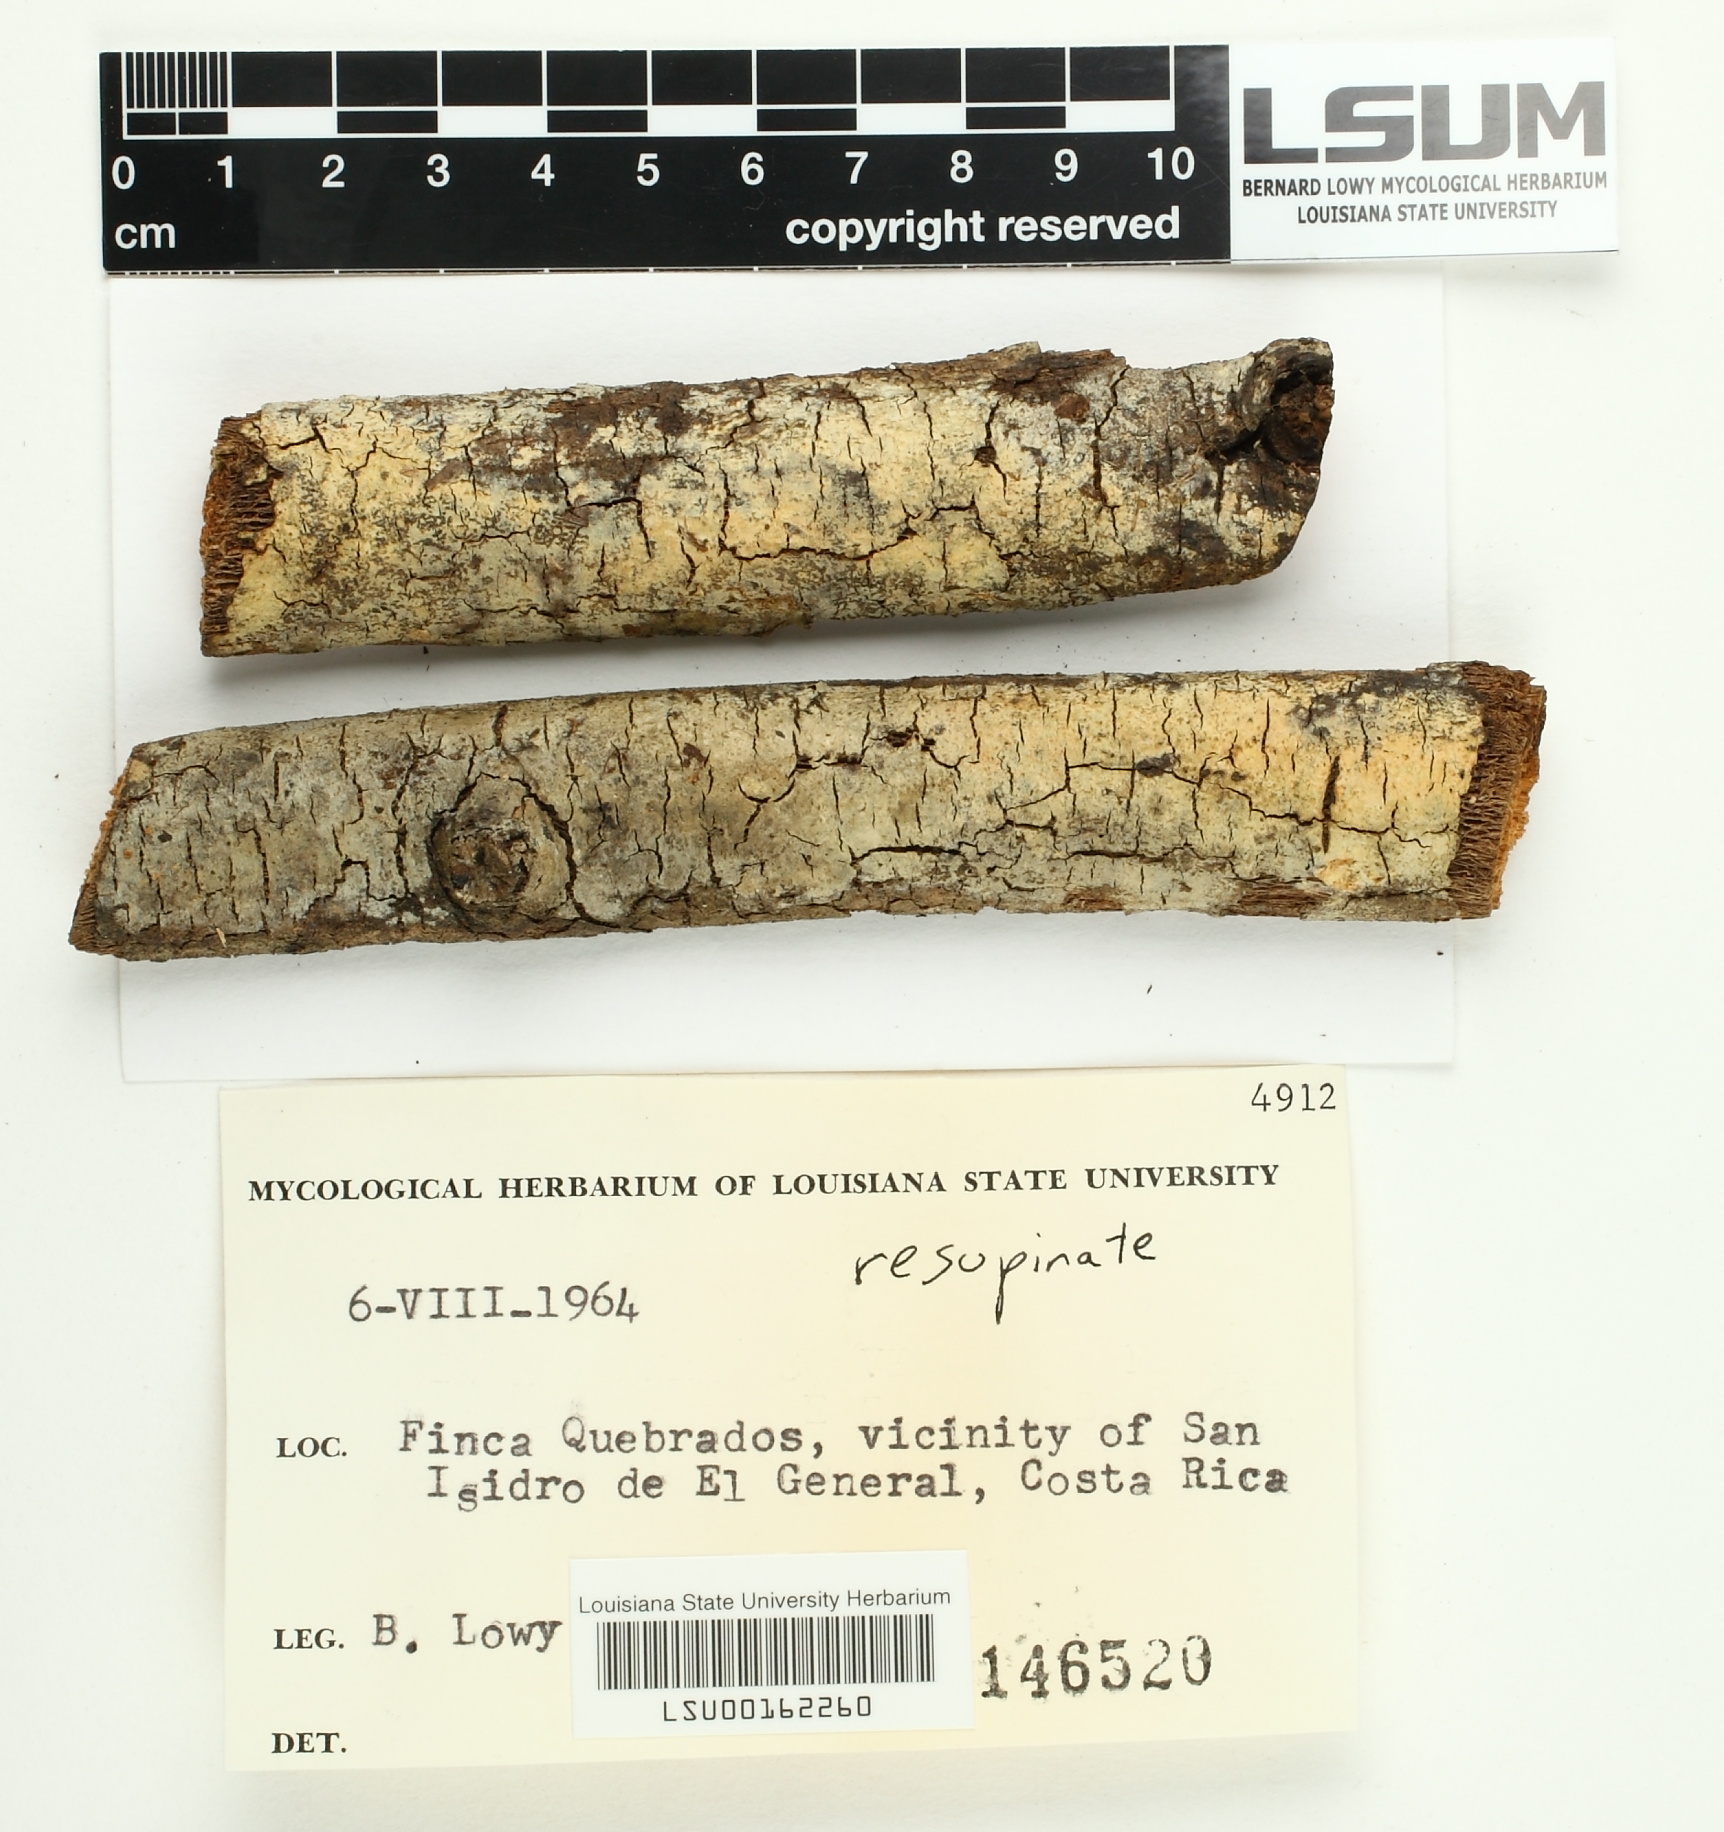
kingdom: Fungi
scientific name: Fungi
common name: Fungi
